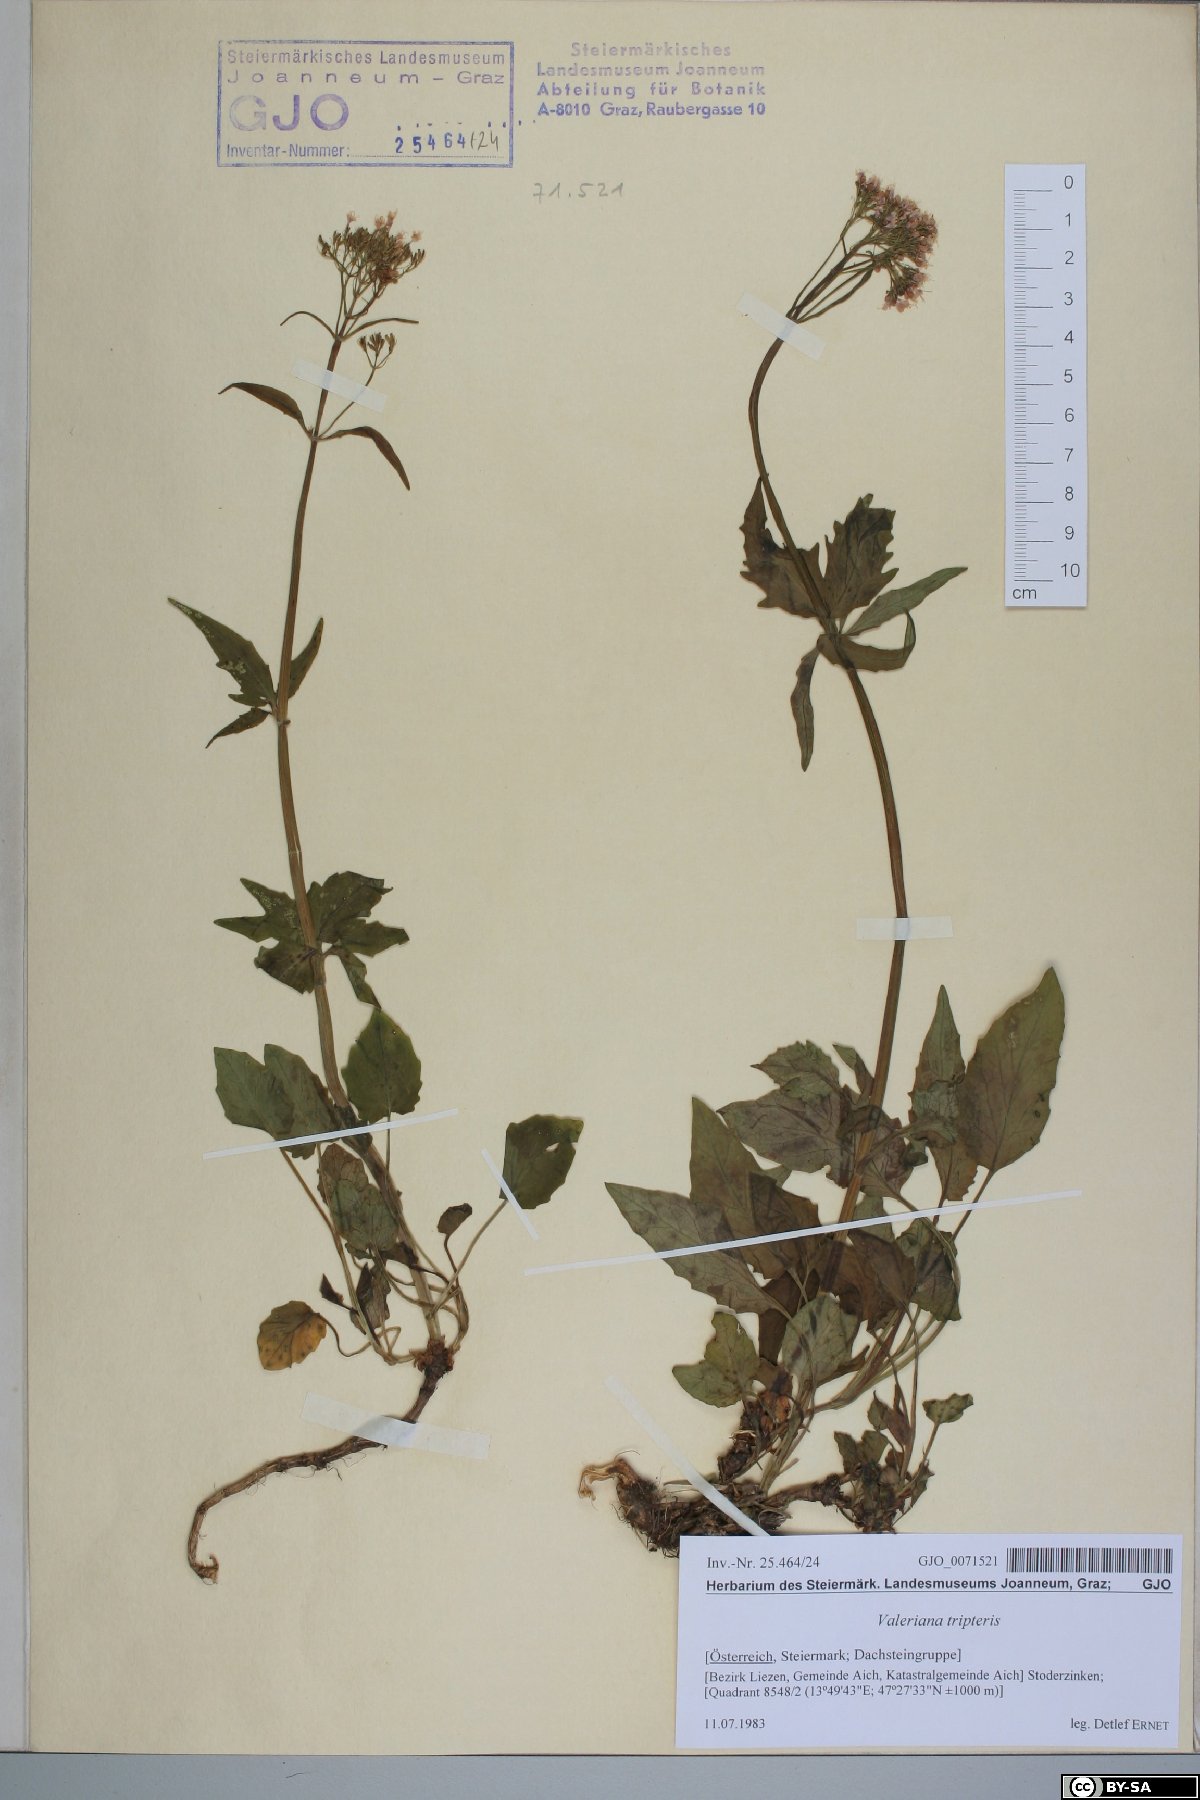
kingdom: Plantae
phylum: Tracheophyta
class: Magnoliopsida
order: Dipsacales
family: Caprifoliaceae
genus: Valeriana
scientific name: Valeriana tripteris
